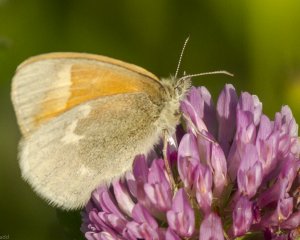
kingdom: Animalia
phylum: Arthropoda
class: Insecta
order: Lepidoptera
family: Nymphalidae
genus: Coenonympha
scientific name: Coenonympha tullia
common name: Large Heath
